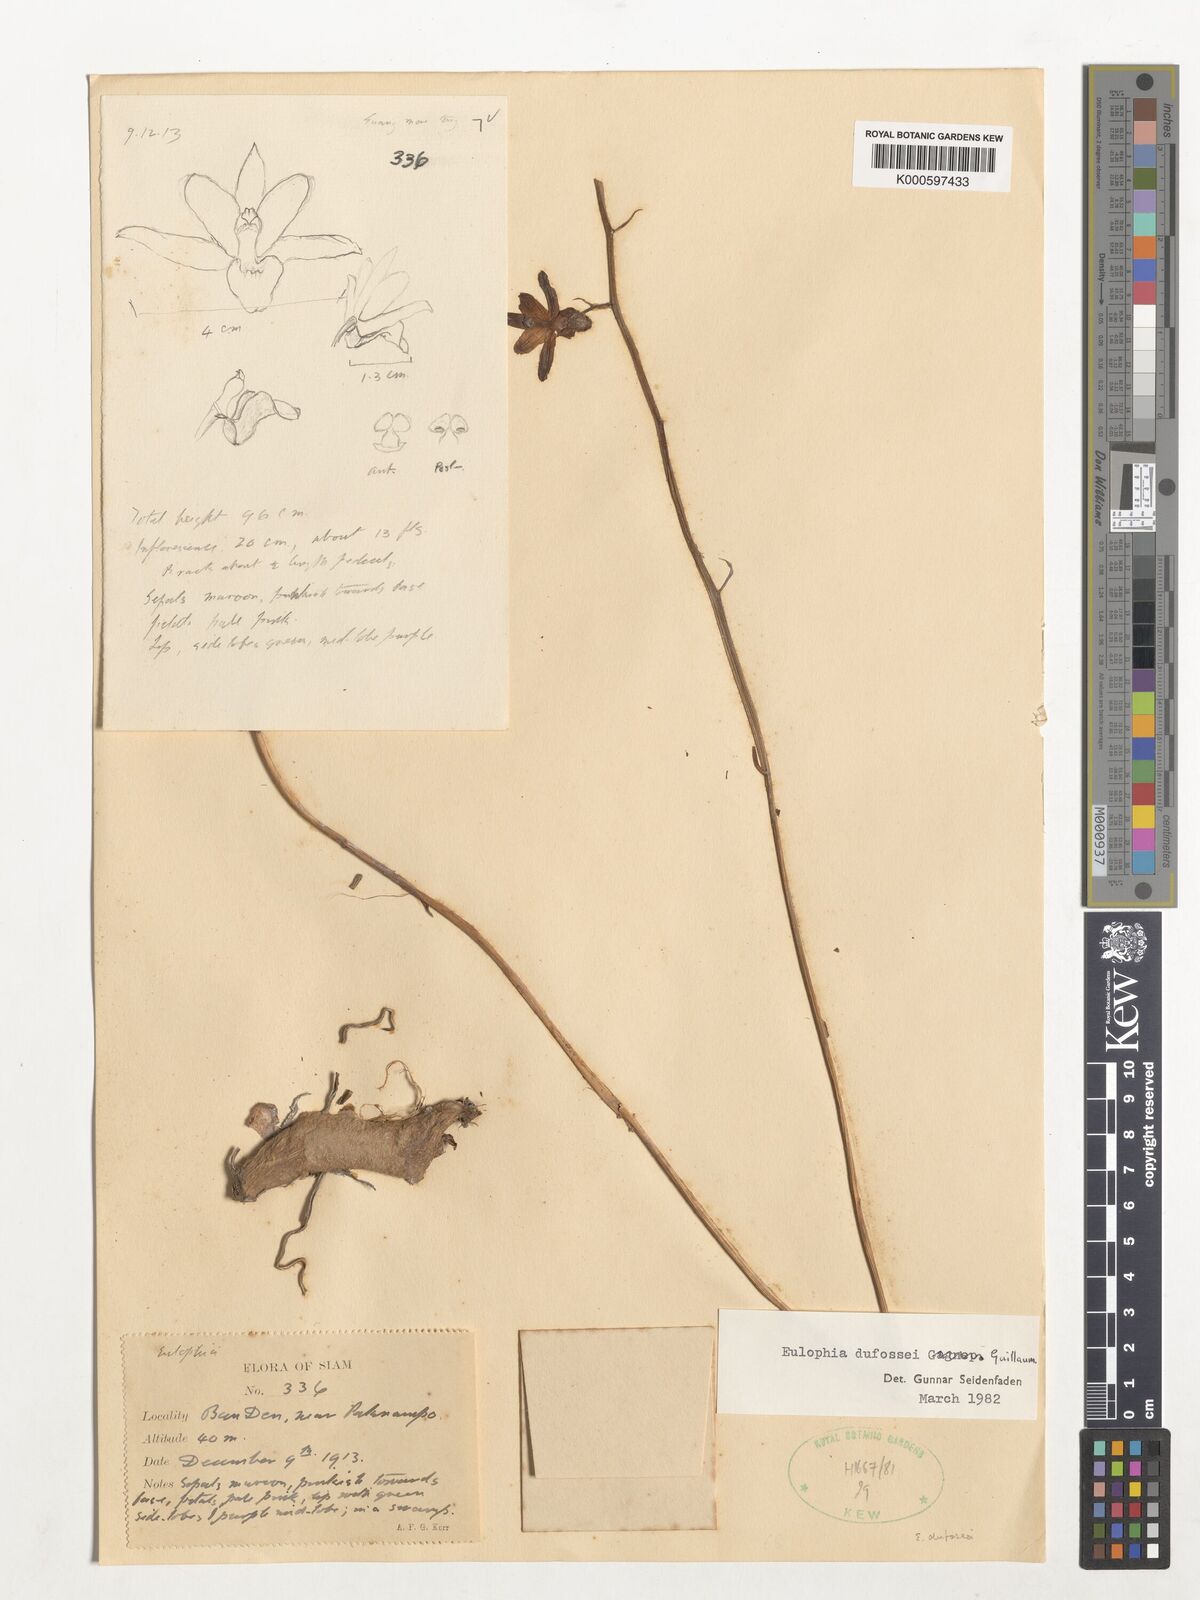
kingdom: Plantae
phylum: Tracheophyta
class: Liliopsida
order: Asparagales
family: Orchidaceae
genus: Eulophia
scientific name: Eulophia dufossei
